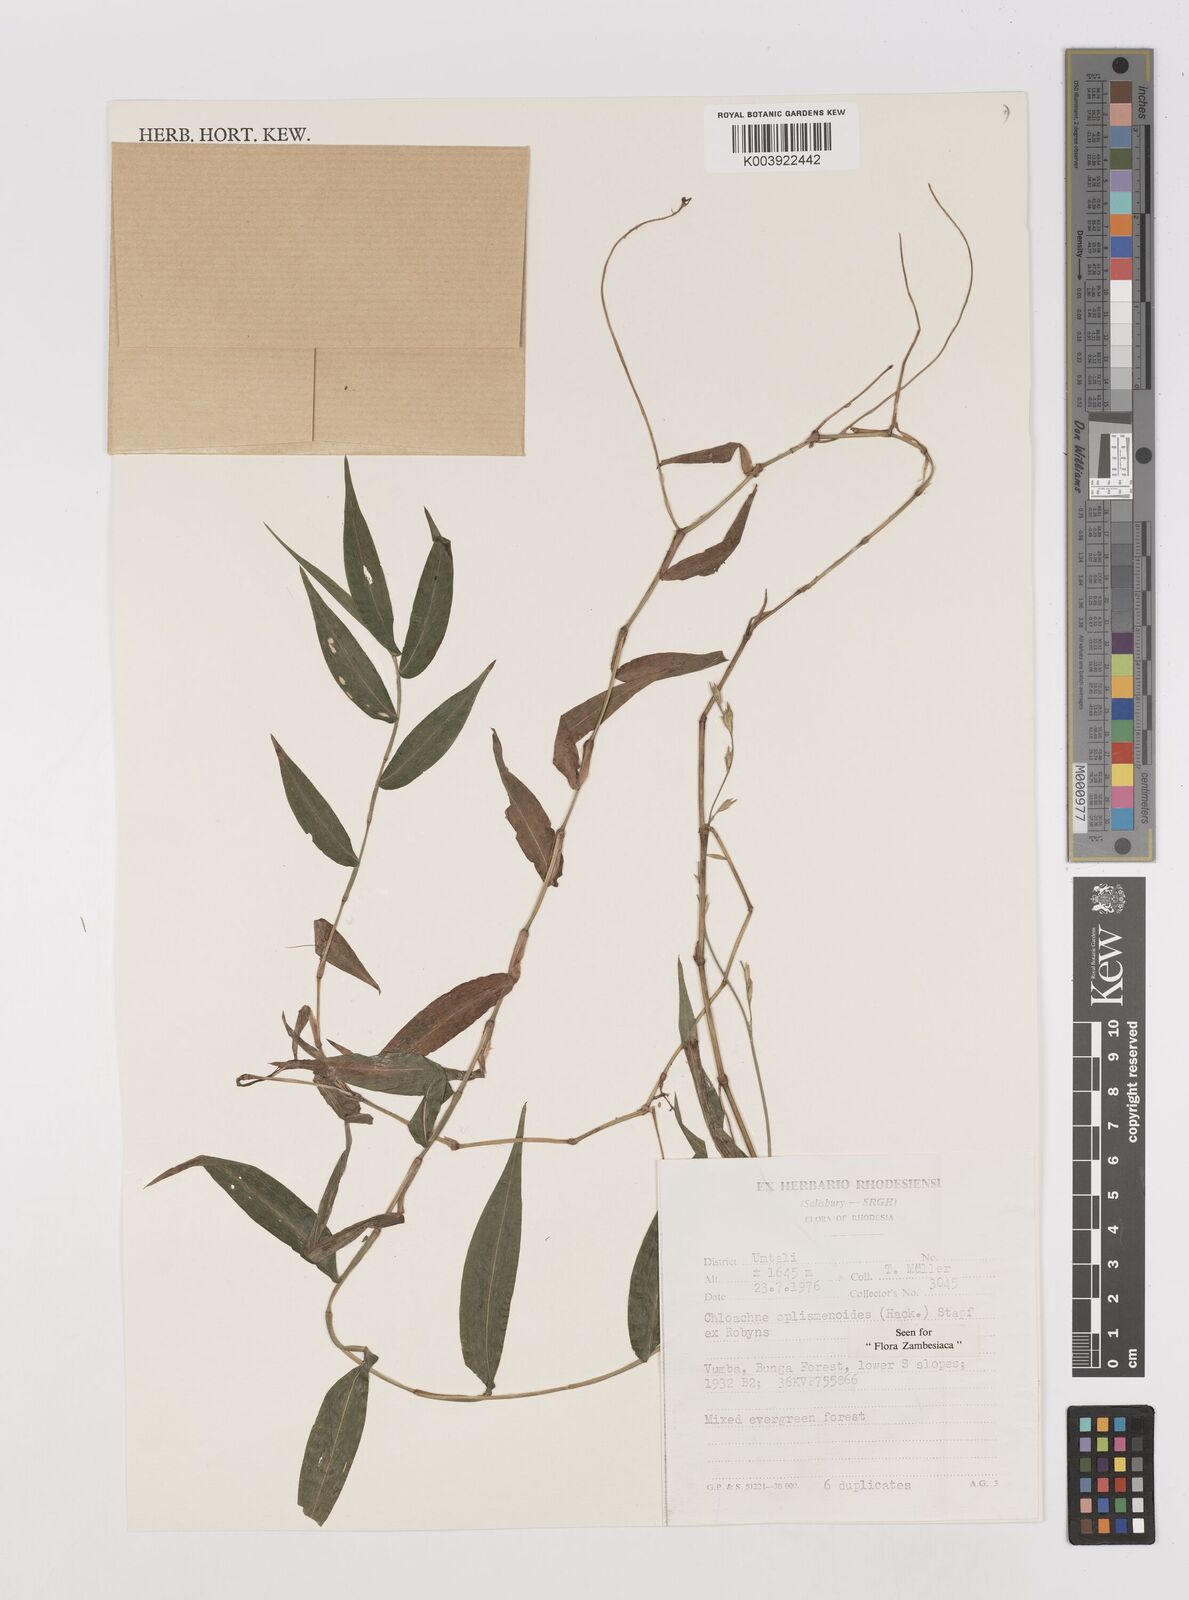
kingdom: Plantae
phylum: Tracheophyta
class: Liliopsida
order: Poales
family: Poaceae
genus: Poecilostachys
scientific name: Poecilostachys oplismenoides
